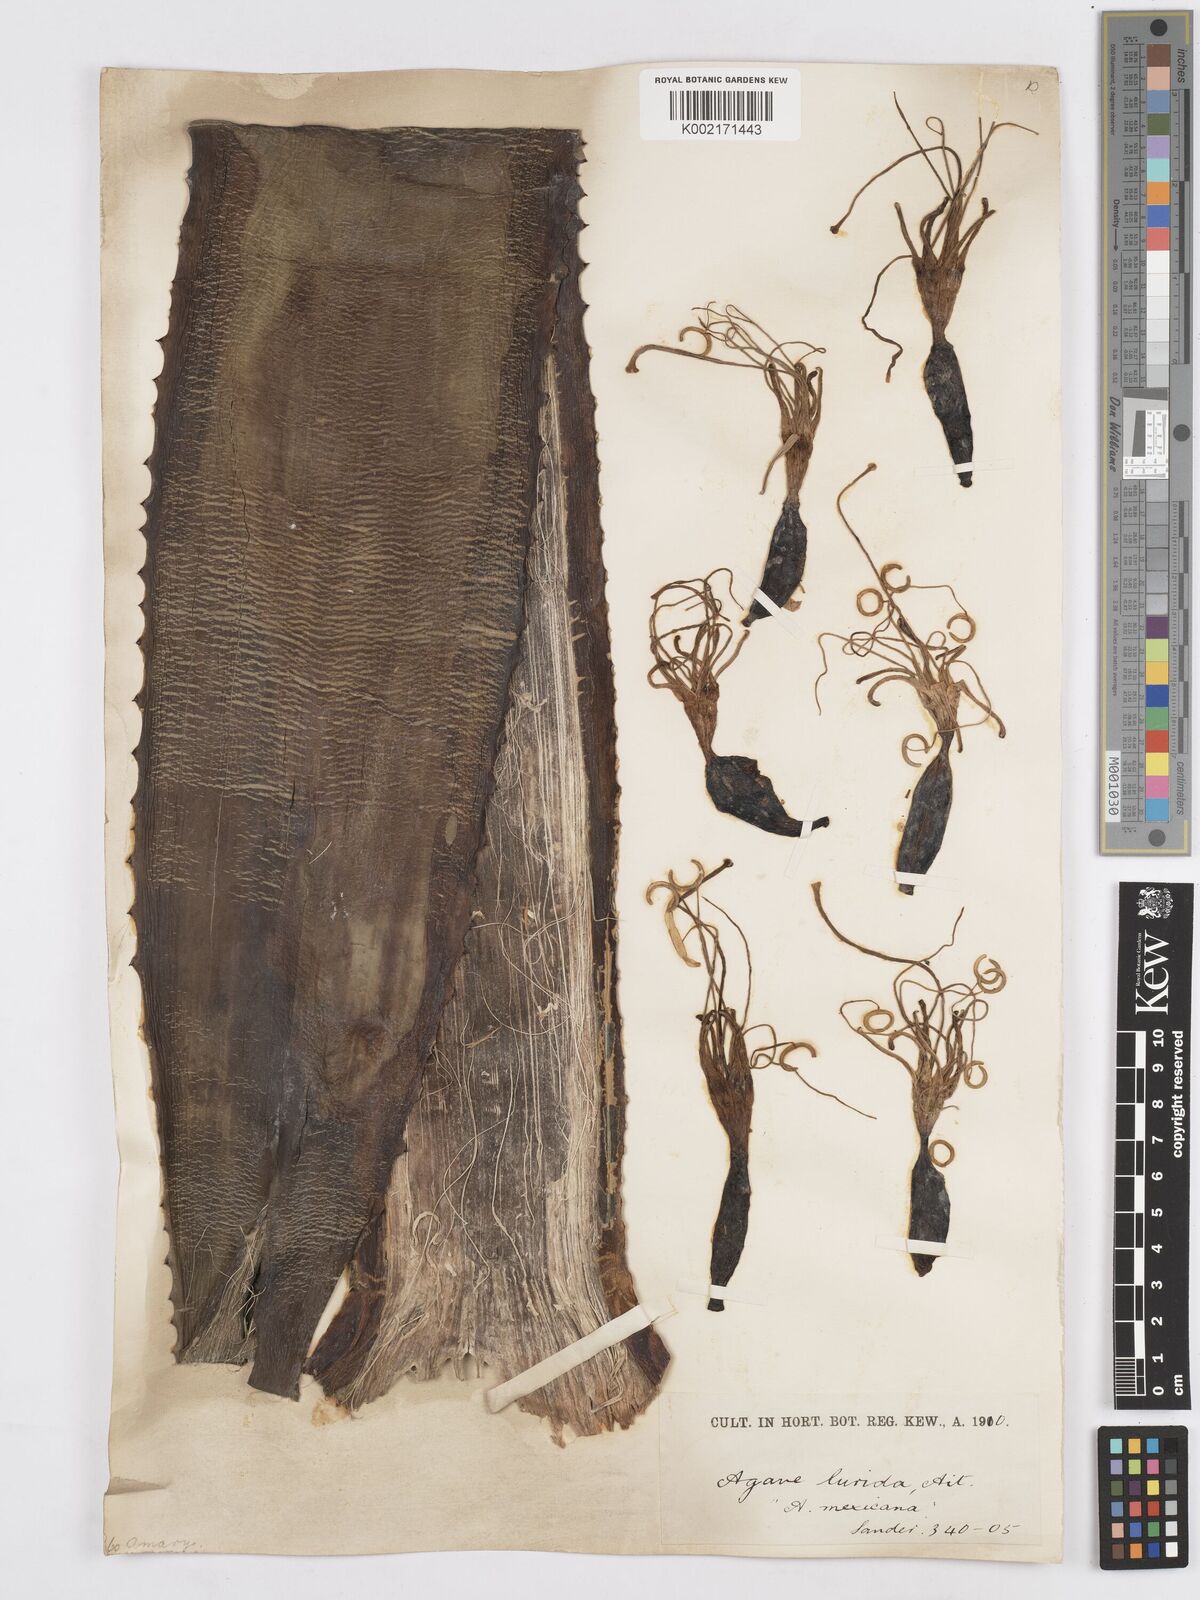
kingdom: Plantae
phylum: Tracheophyta
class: Liliopsida
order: Asparagales
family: Asparagaceae
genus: Agave
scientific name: Agave vera-cruz
